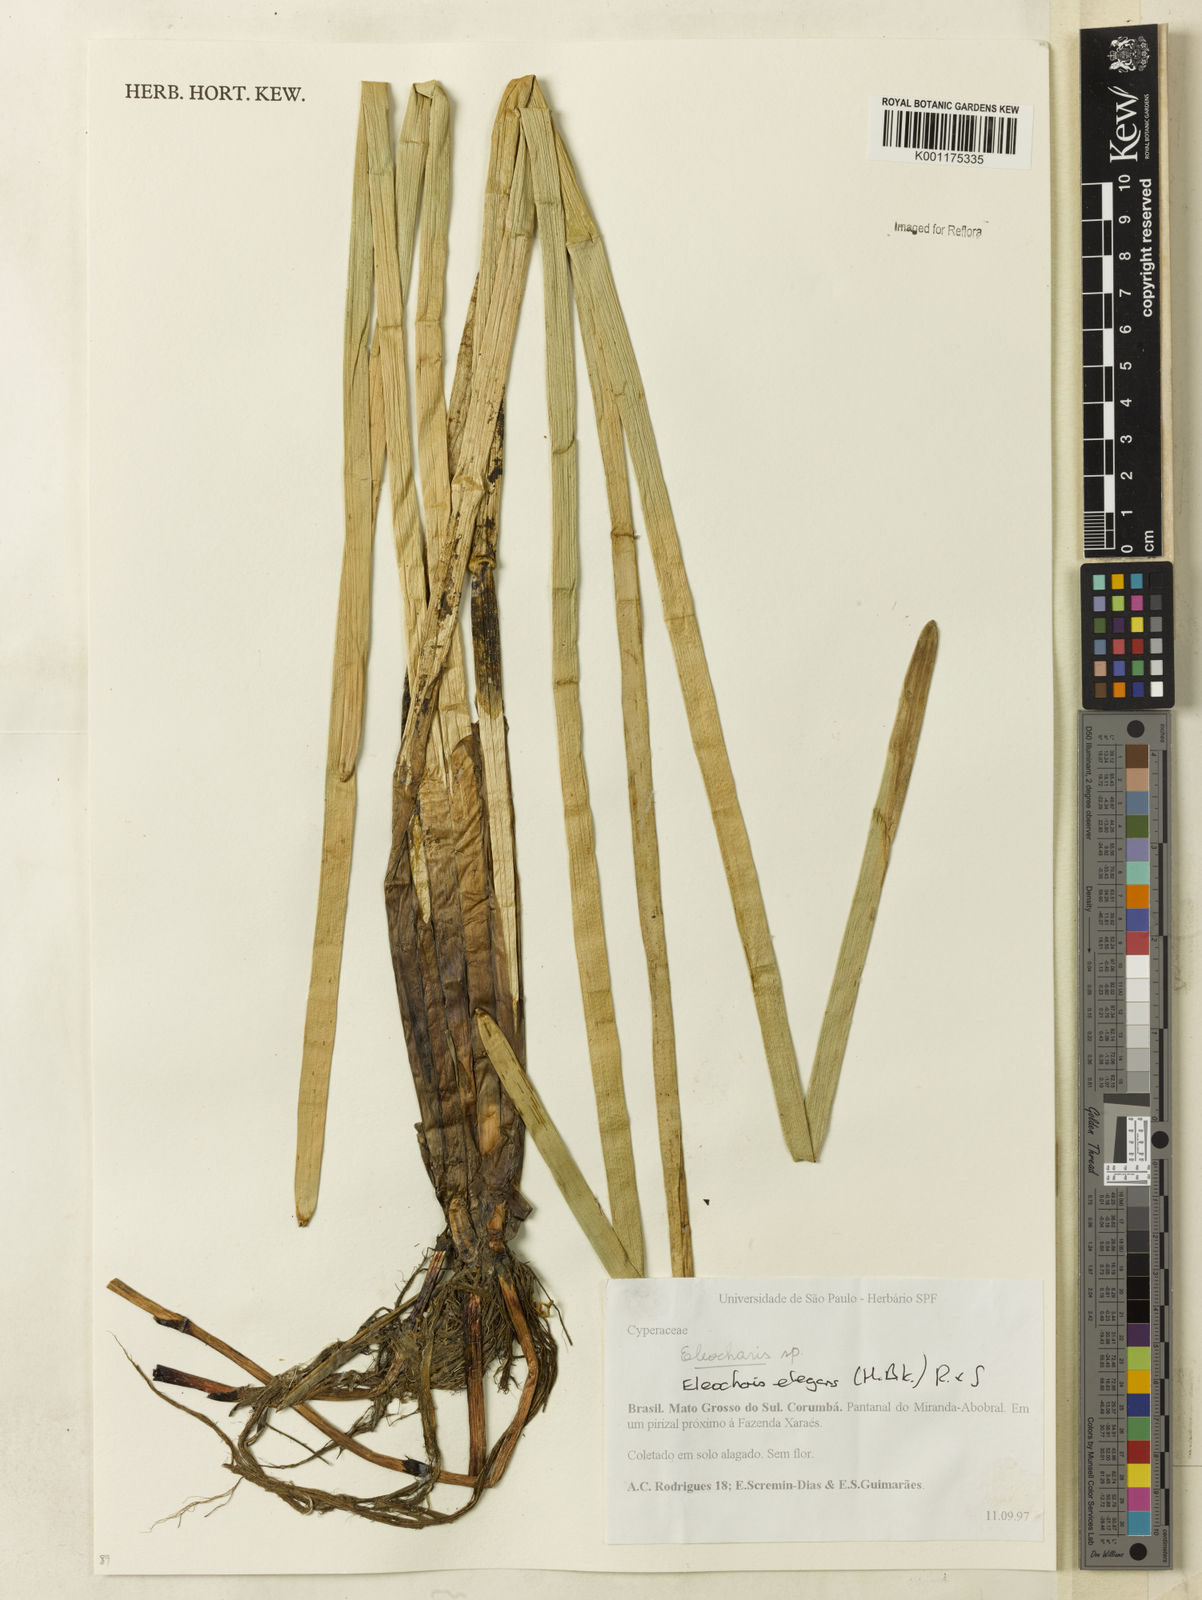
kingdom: Plantae
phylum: Tracheophyta
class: Liliopsida
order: Poales
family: Cyperaceae
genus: Eleocharis
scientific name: Eleocharis elegans
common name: Elegant spike-rush
